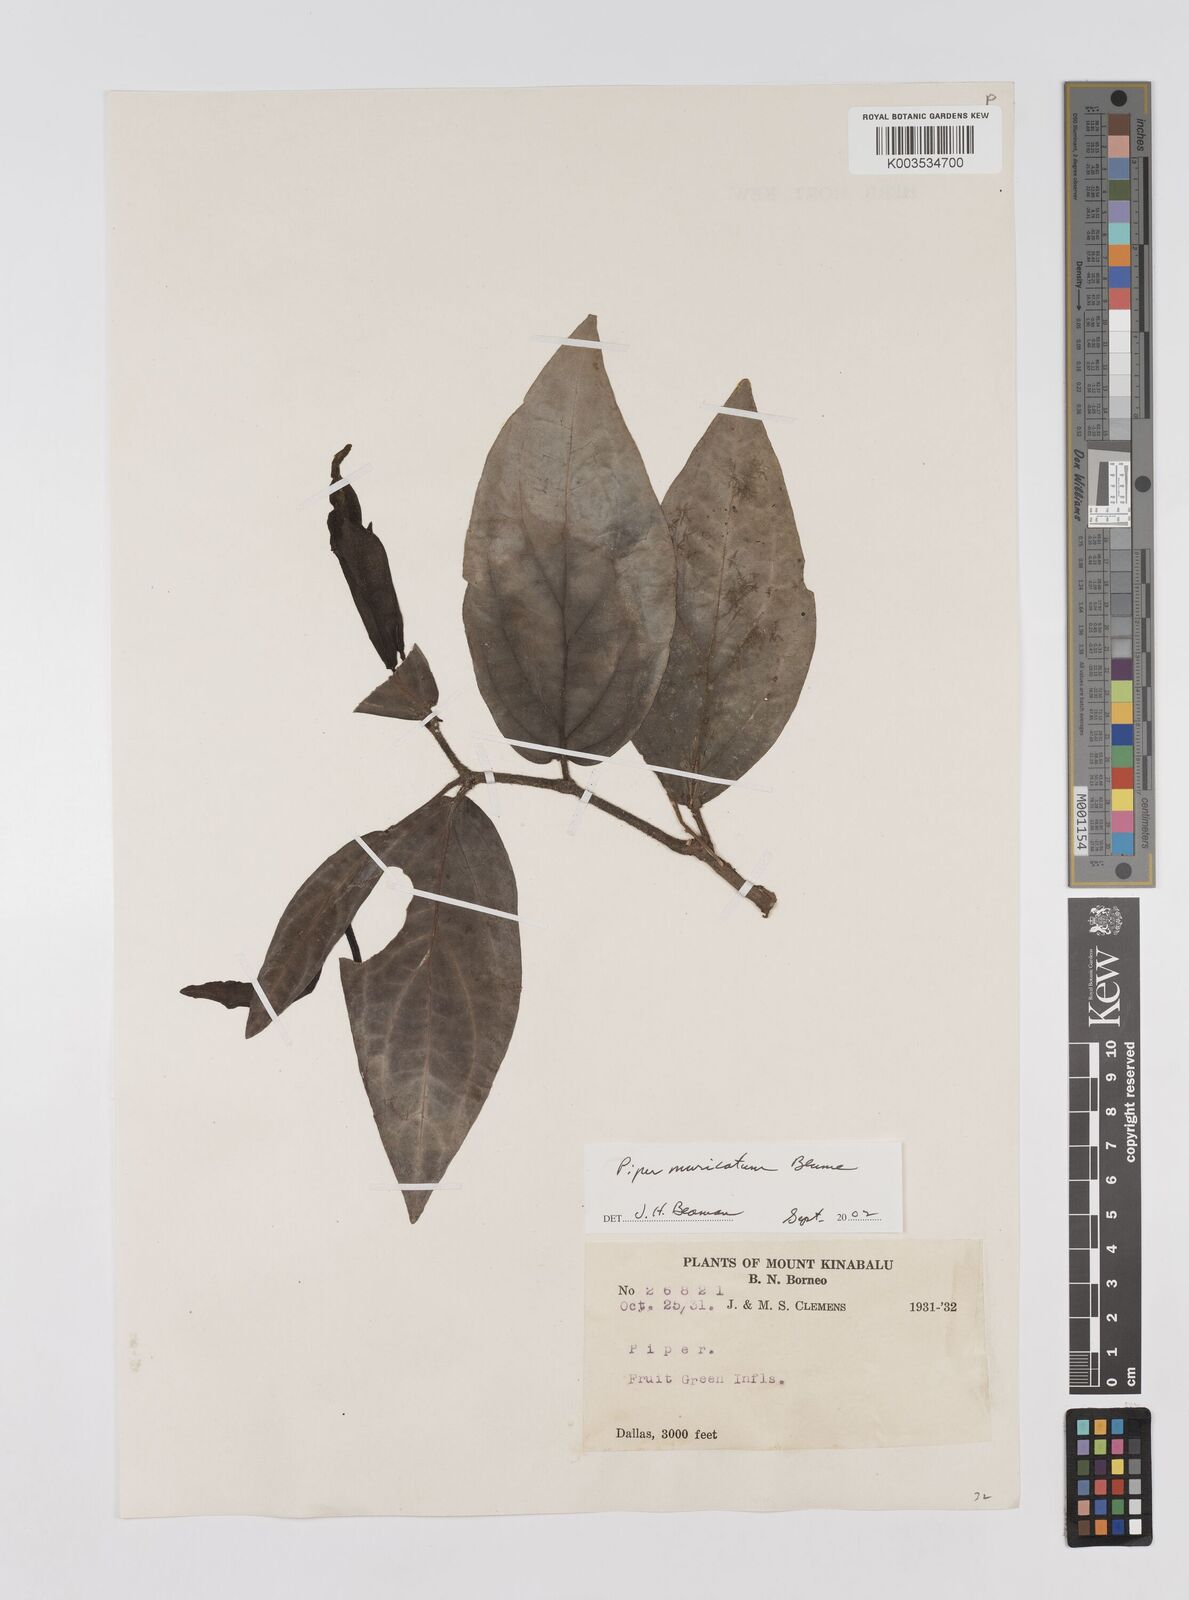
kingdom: Plantae
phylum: Tracheophyta
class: Magnoliopsida
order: Piperales
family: Piperaceae
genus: Piper
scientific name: Piper muricatum
